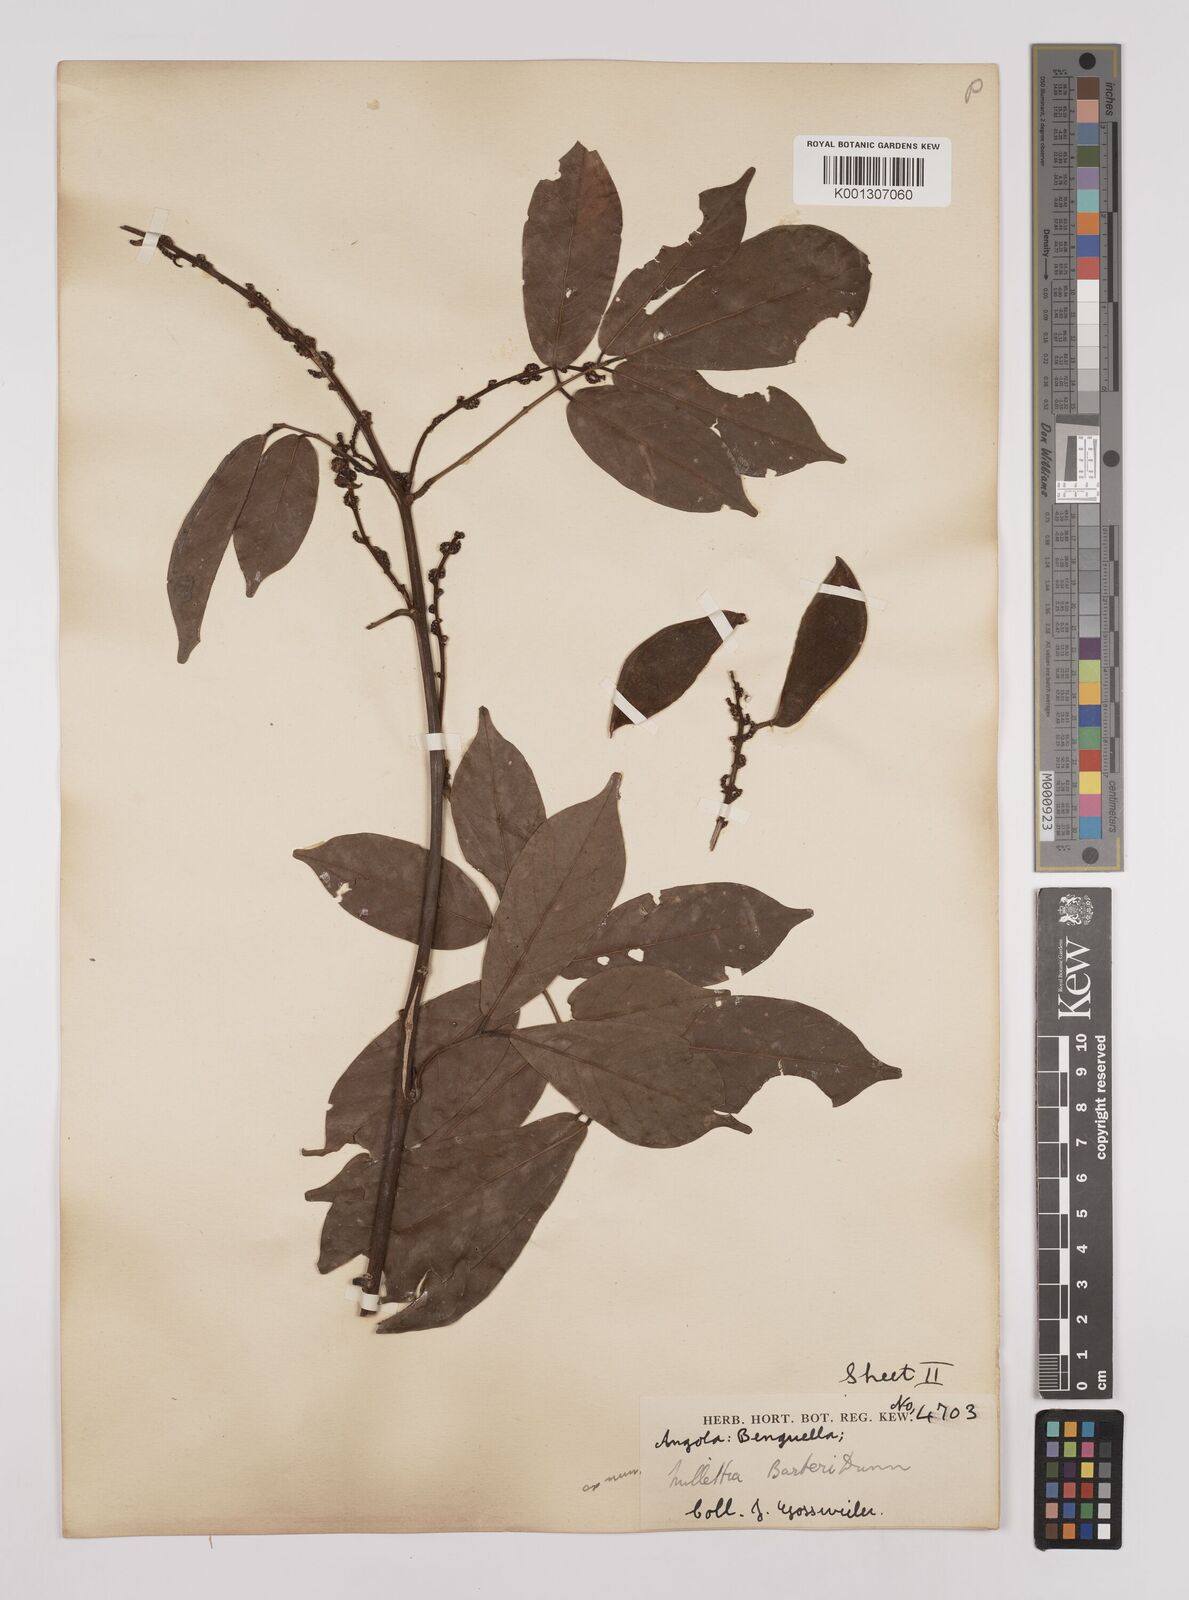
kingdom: Plantae
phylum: Tracheophyta
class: Magnoliopsida
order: Fabales
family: Fabaceae
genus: Millettia
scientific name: Millettia barteri
